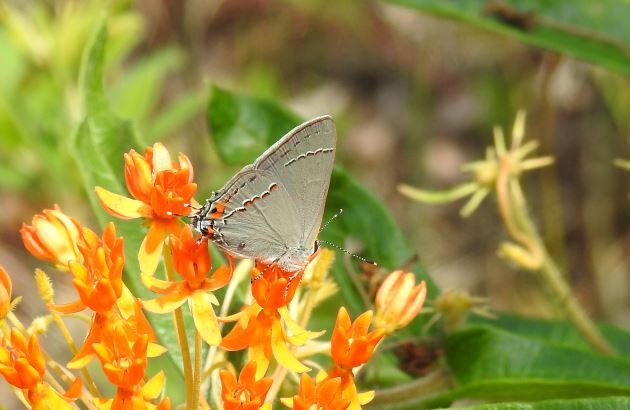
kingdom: Animalia
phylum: Arthropoda
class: Insecta
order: Lepidoptera
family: Lycaenidae
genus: Strymon
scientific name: Strymon melinus
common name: Gray Hairstreak
